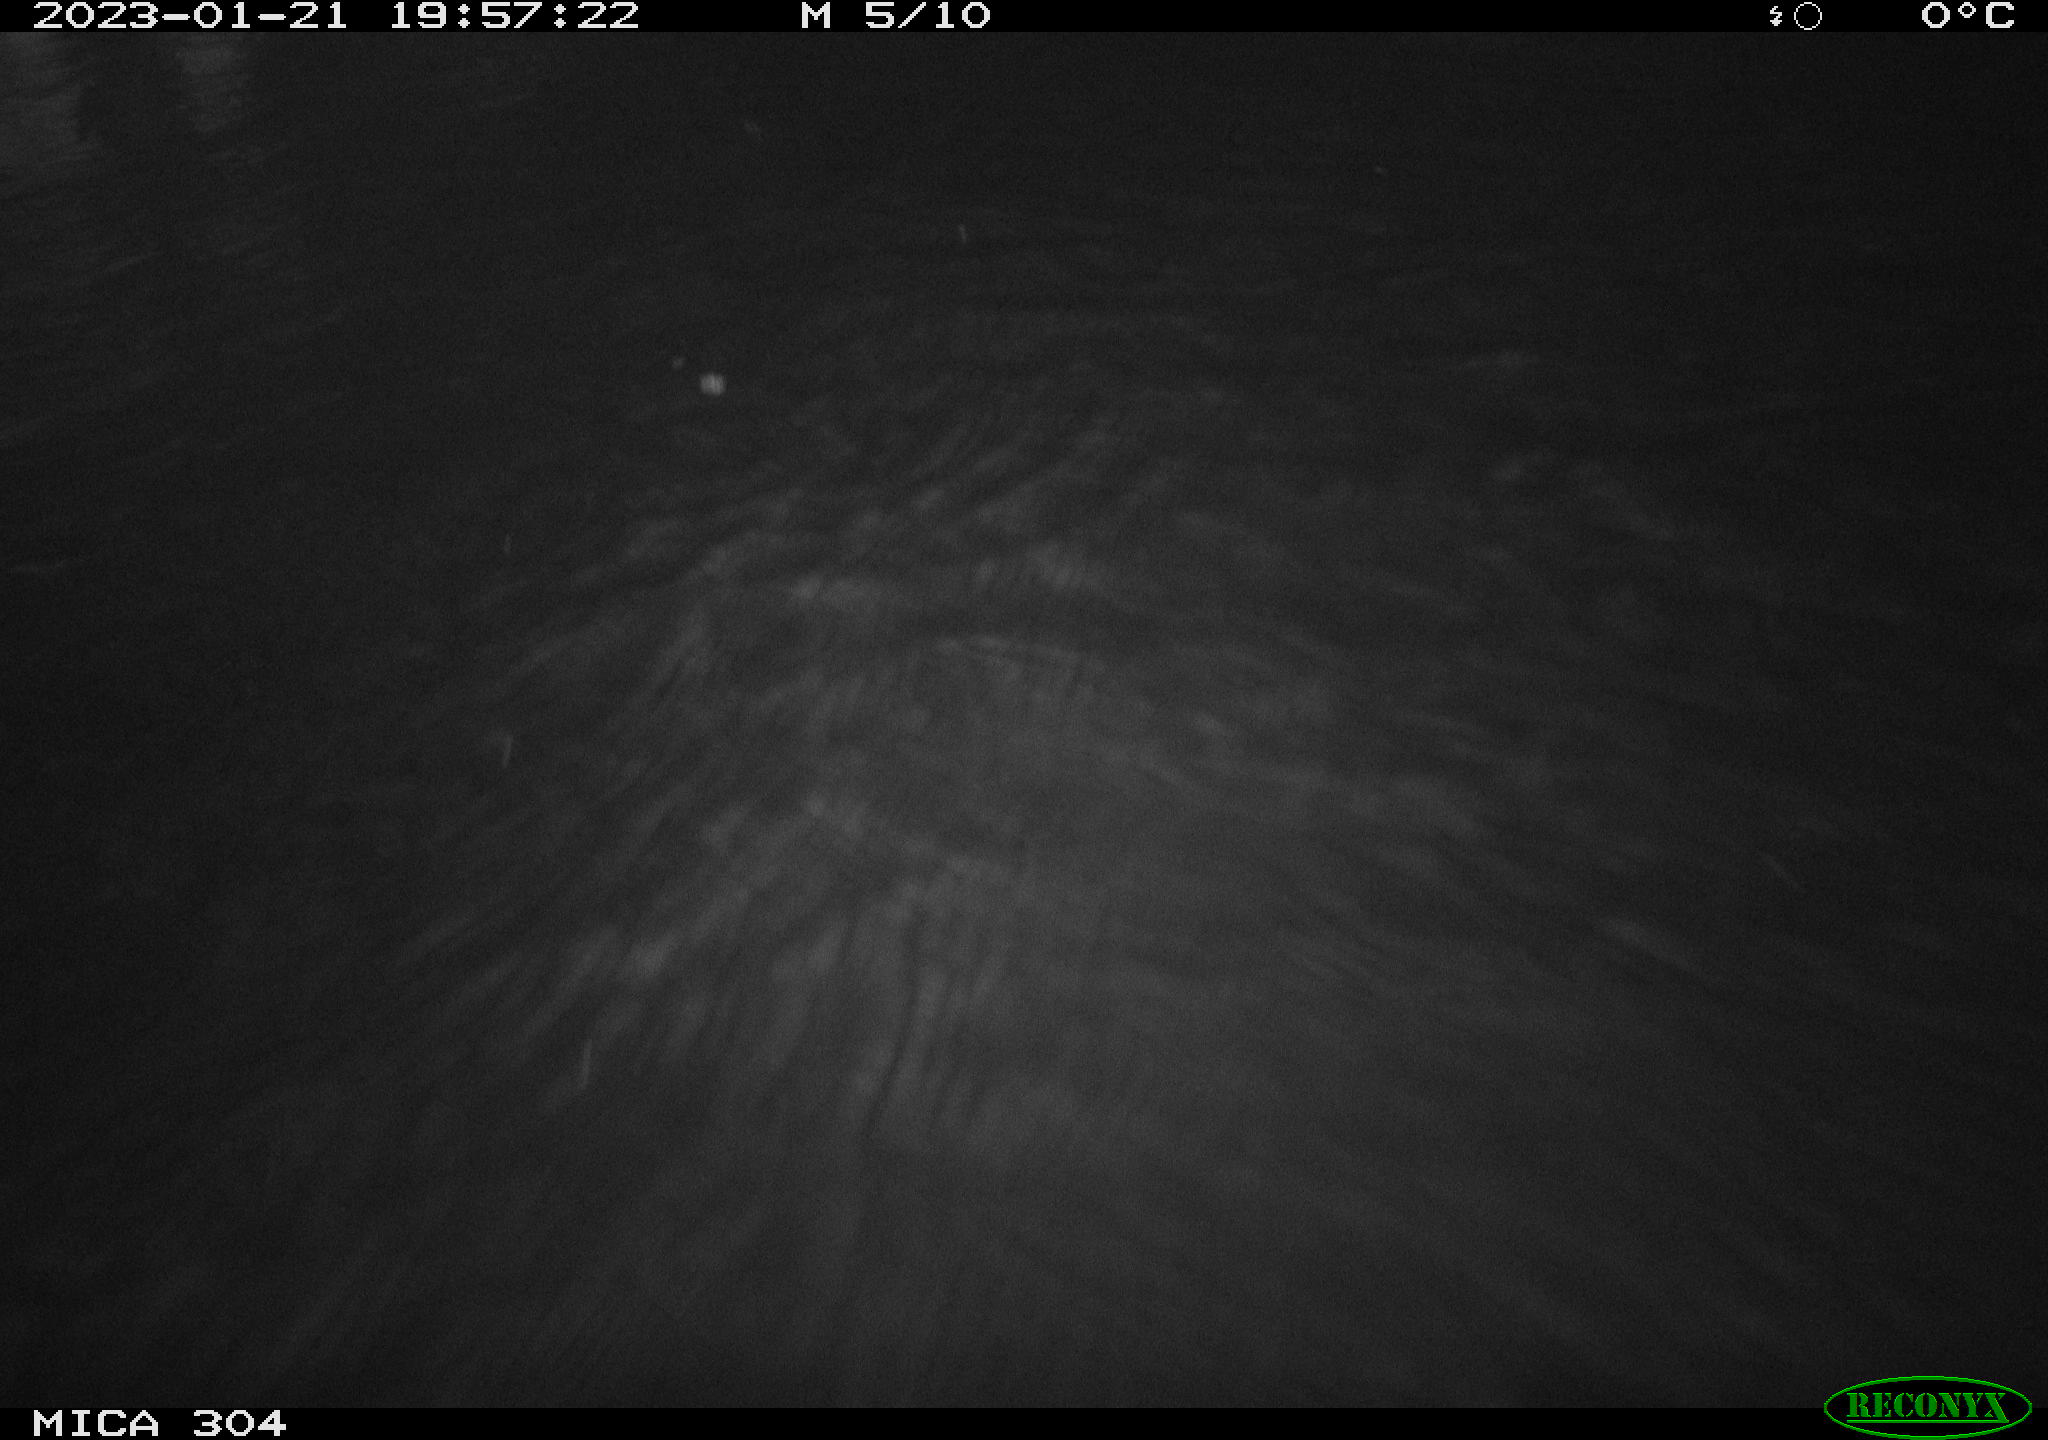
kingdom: Animalia
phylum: Chordata
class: Mammalia
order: Rodentia
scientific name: Rodentia
